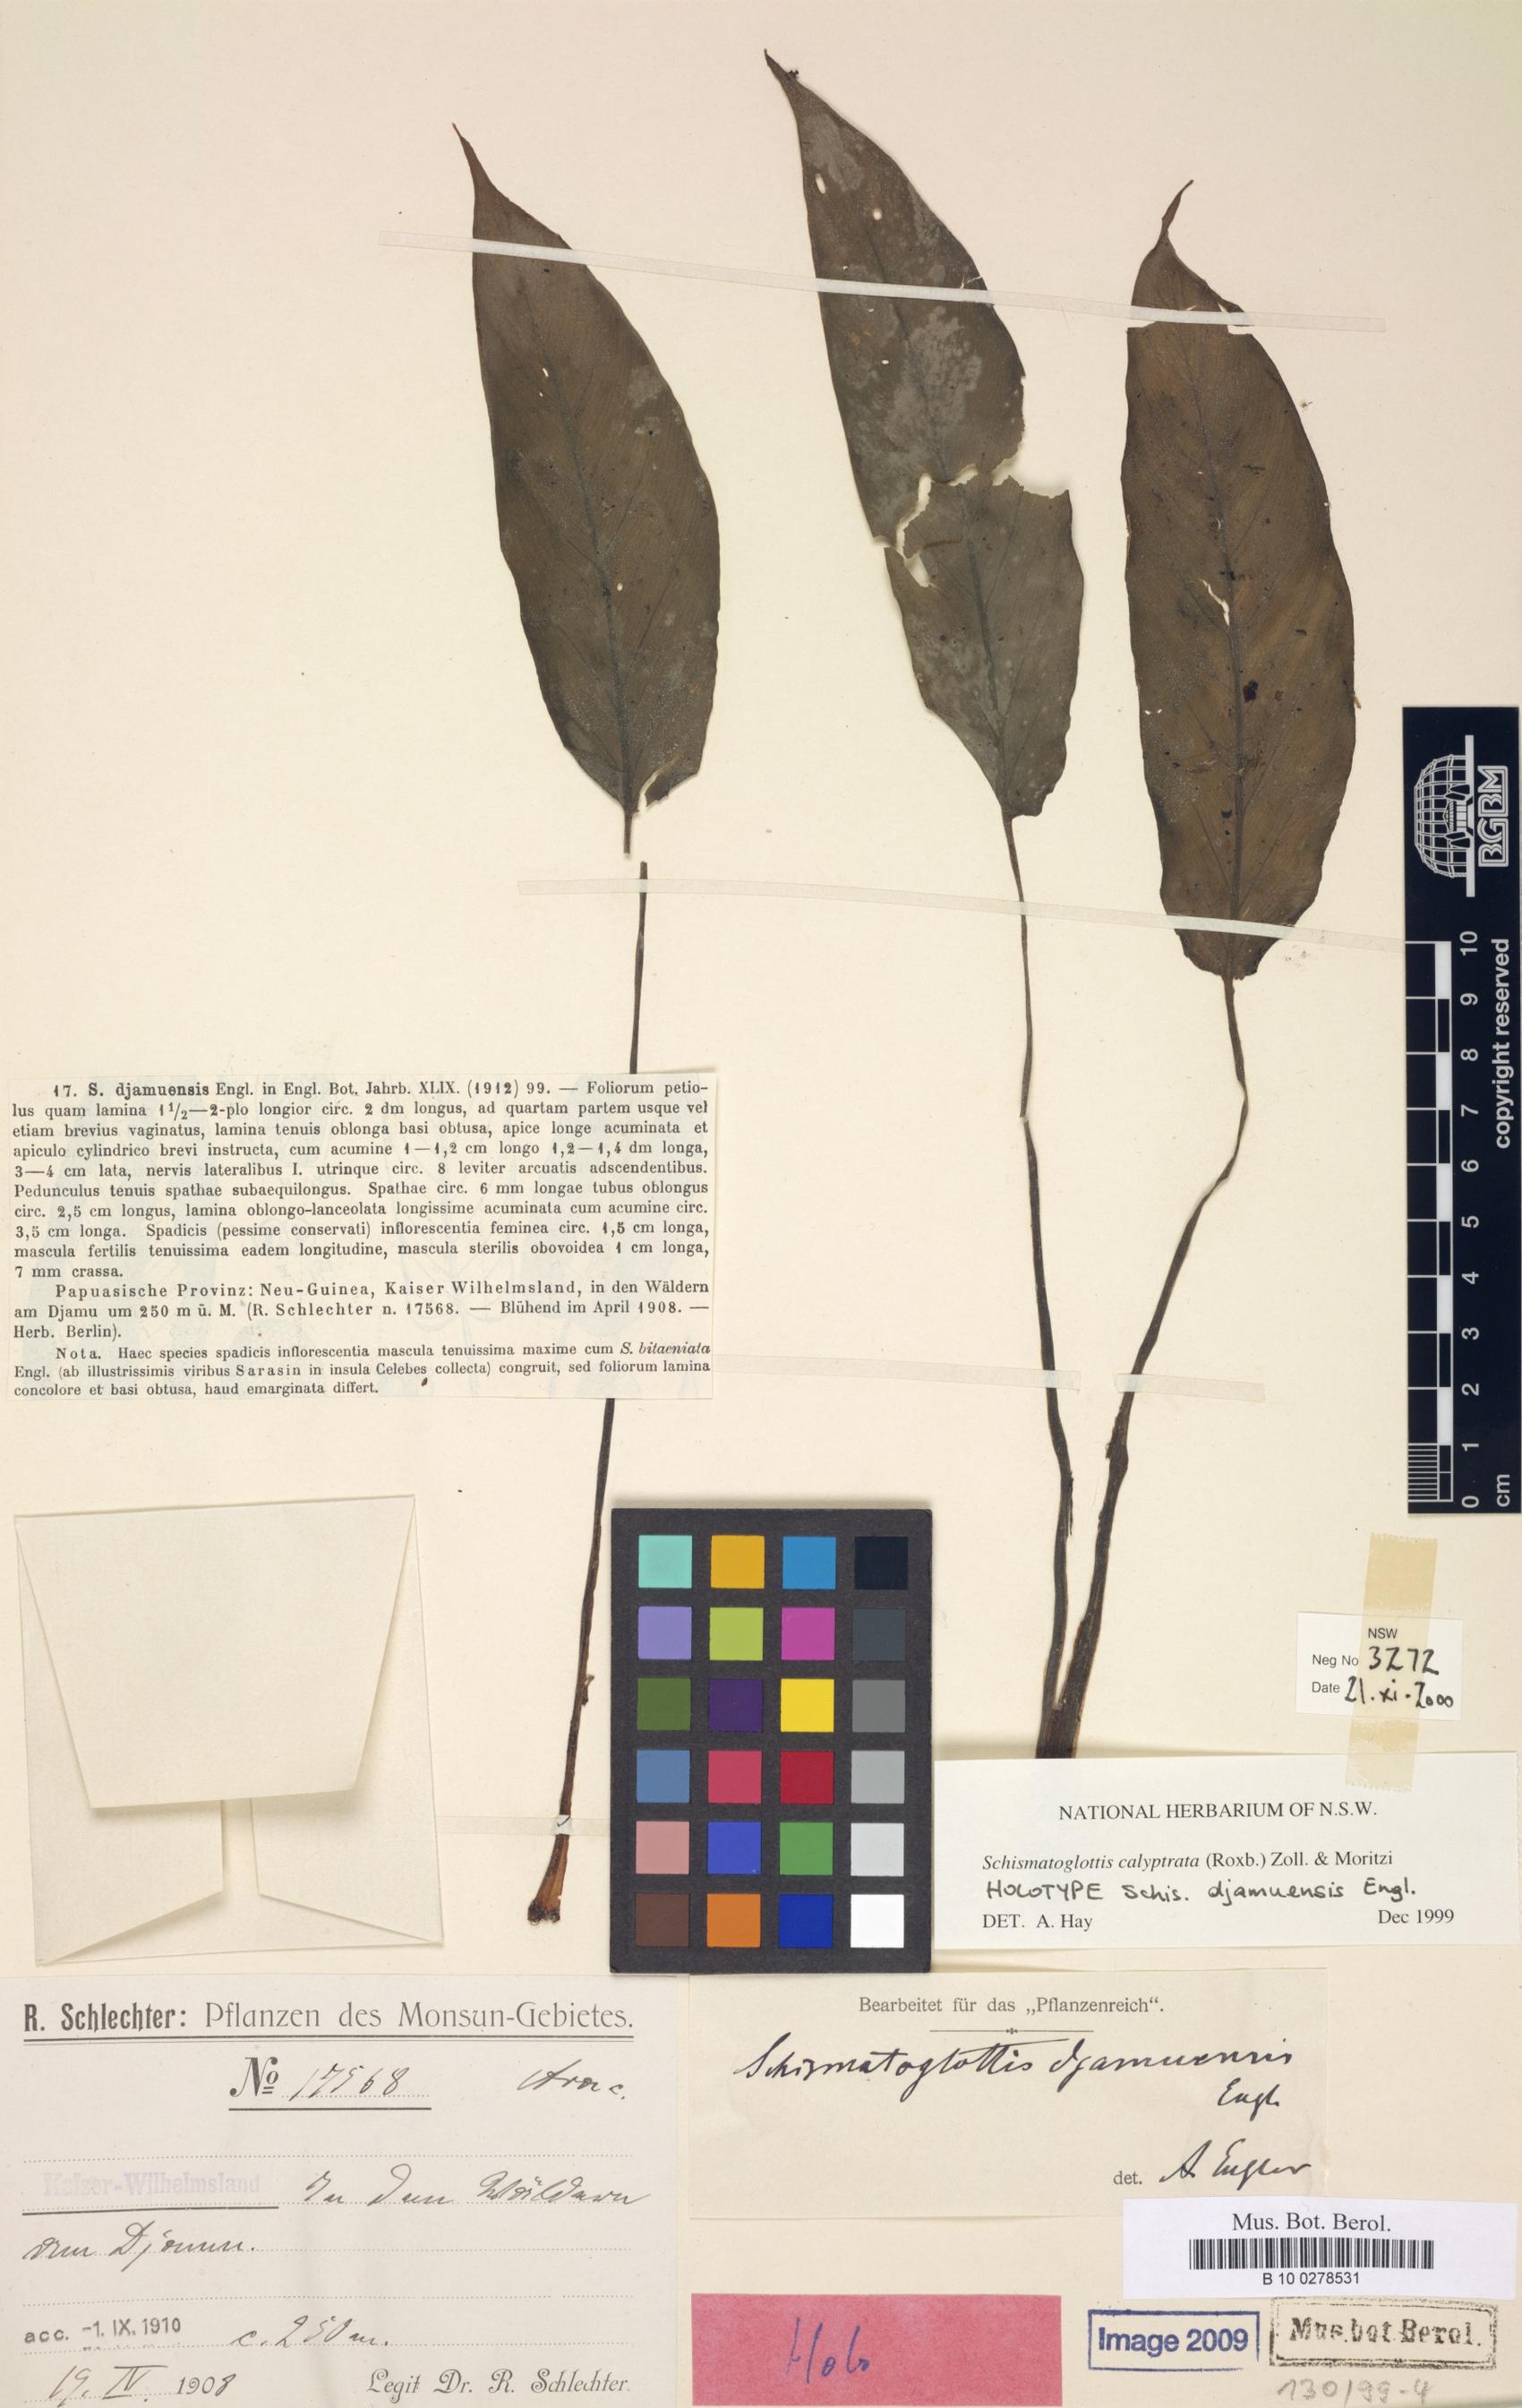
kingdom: Plantae
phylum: Tracheophyta
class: Liliopsida
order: Alismatales
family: Araceae
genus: Schismatoglottis
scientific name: Schismatoglottis calyptrata
